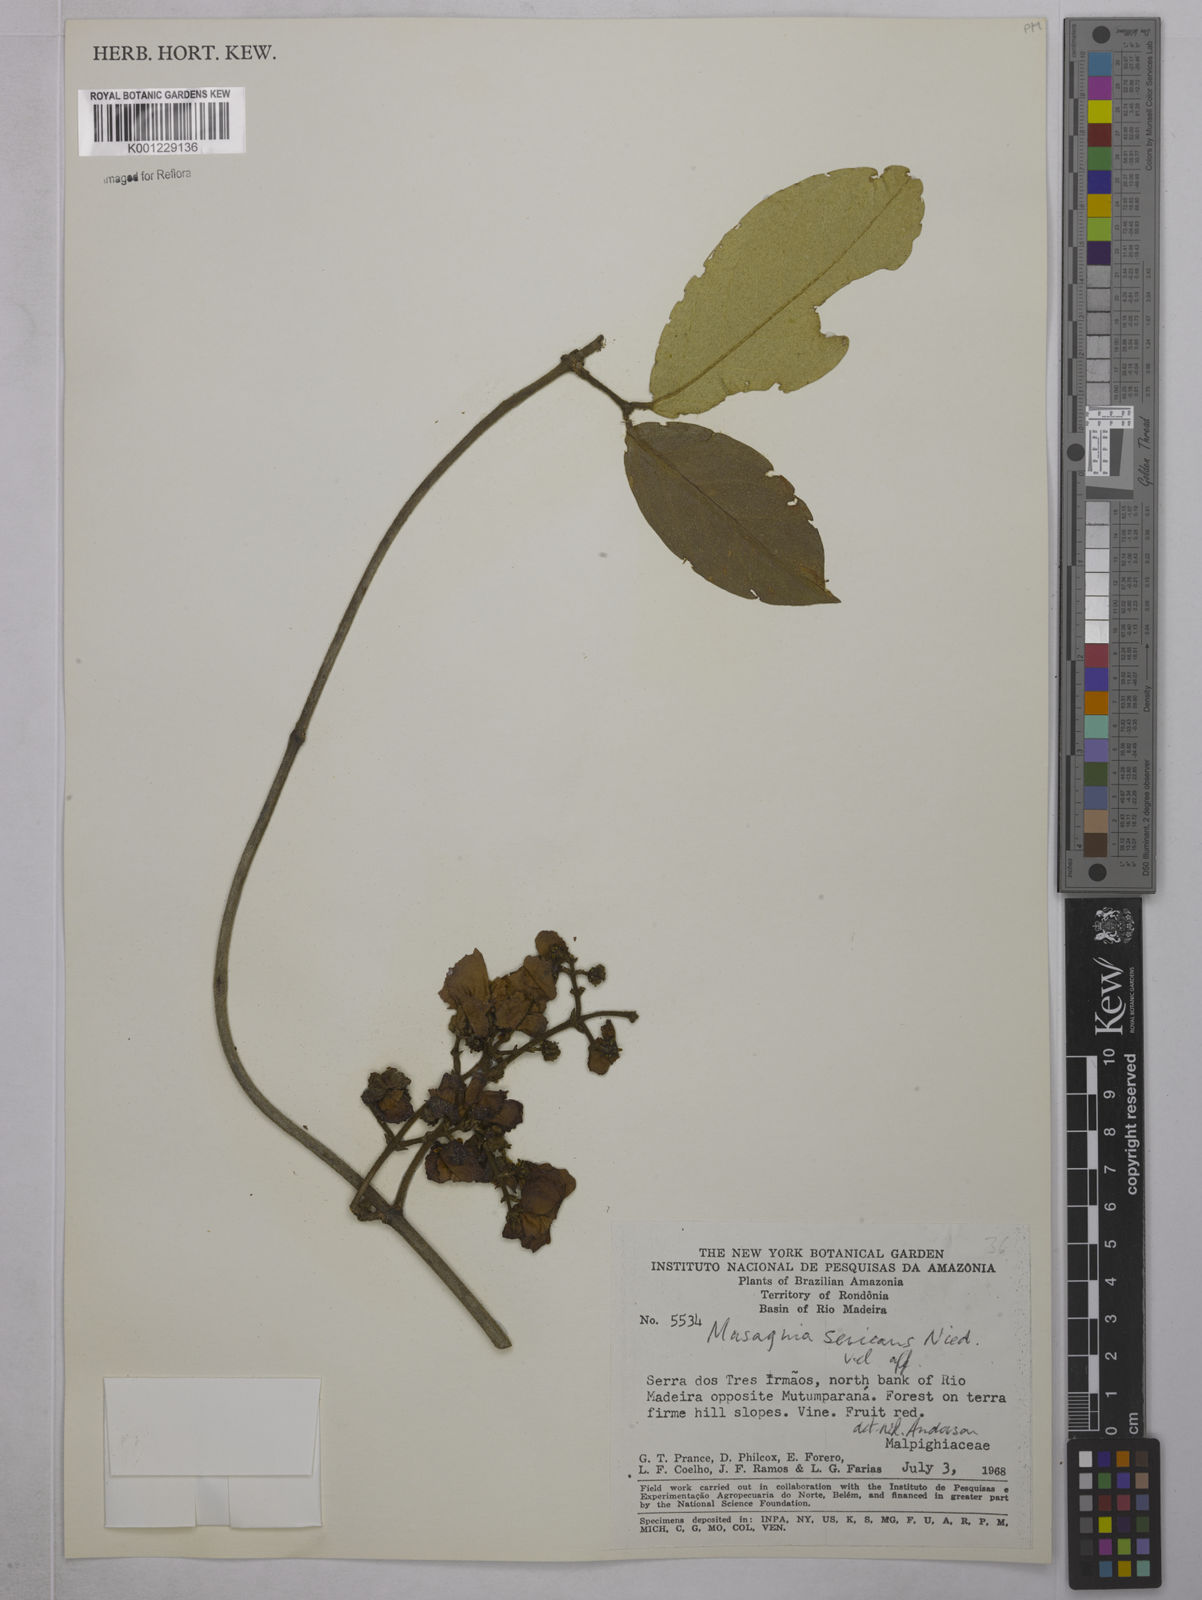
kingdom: Plantae
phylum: Tracheophyta
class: Magnoliopsida
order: Malpighiales
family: Malpighiaceae
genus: Niedenzuella
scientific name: Niedenzuella stannea
